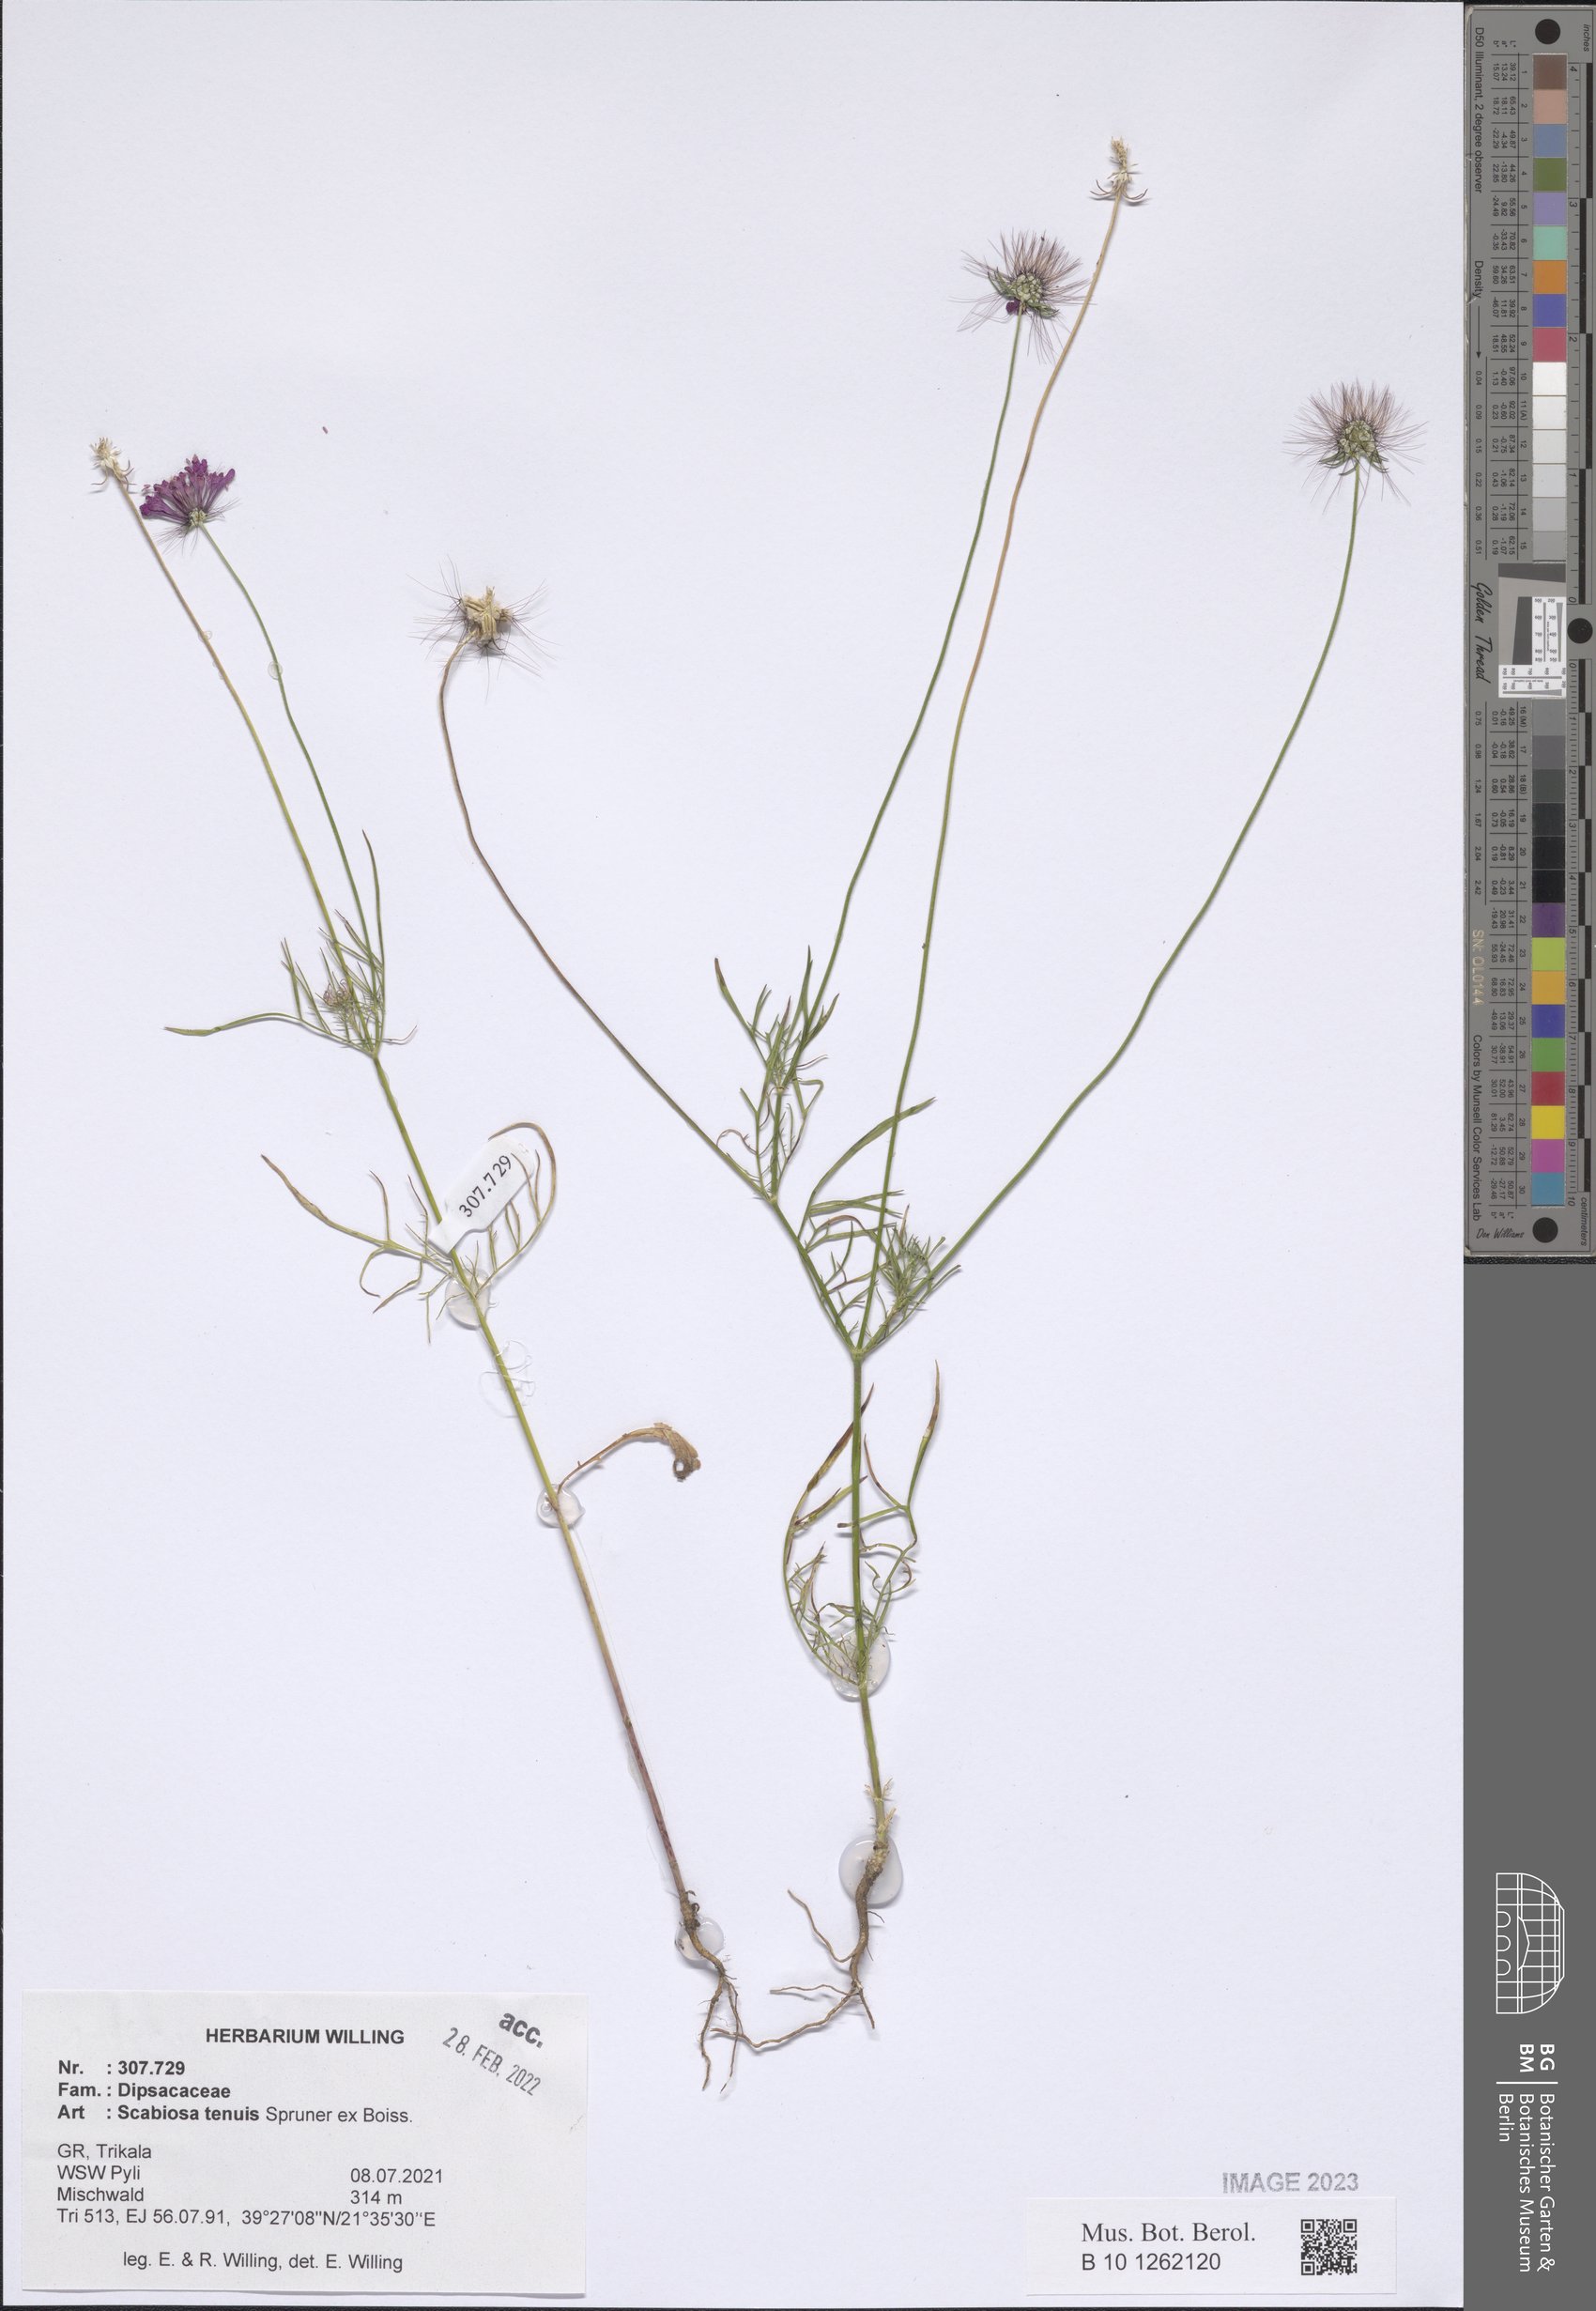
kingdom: Plantae
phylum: Tracheophyta
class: Magnoliopsida
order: Dipsacales
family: Caprifoliaceae
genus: Scabiosa
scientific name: Scabiosa tenuis
